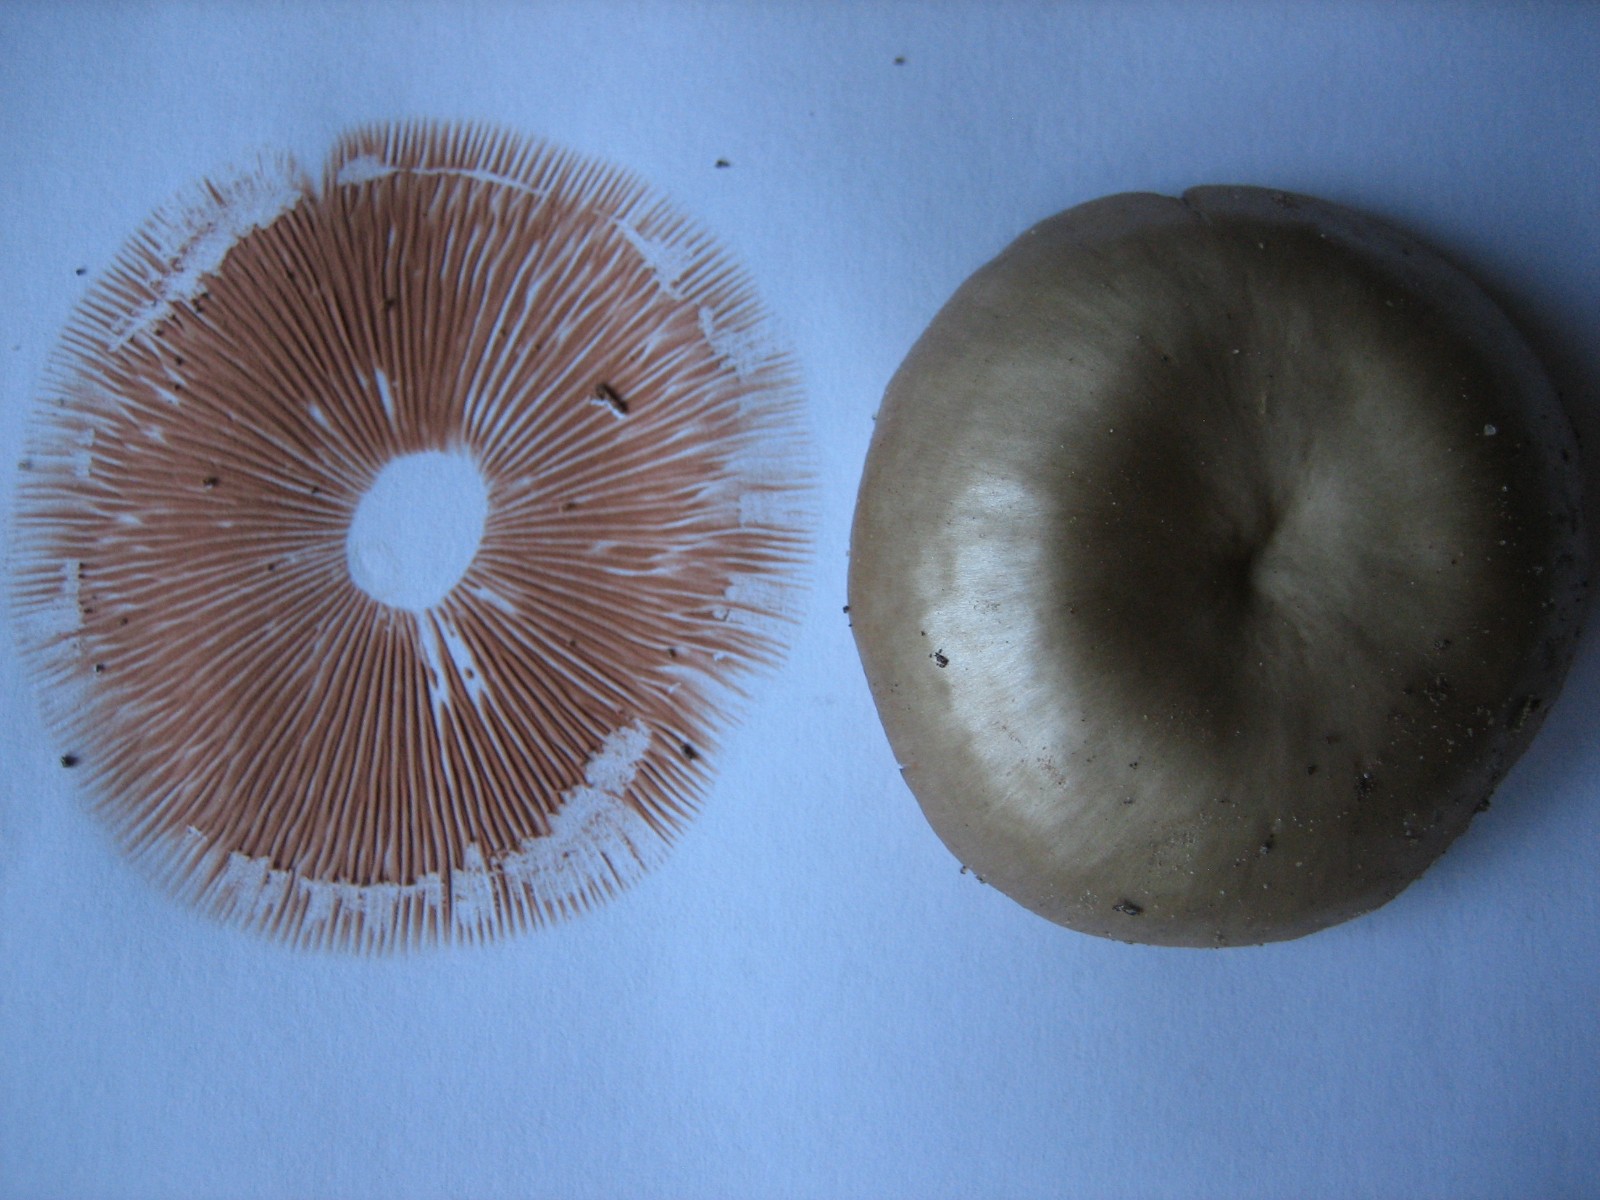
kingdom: Fungi
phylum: Basidiomycota
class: Agaricomycetes
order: Agaricales
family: Entolomataceae
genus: Entoloma
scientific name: Entoloma
